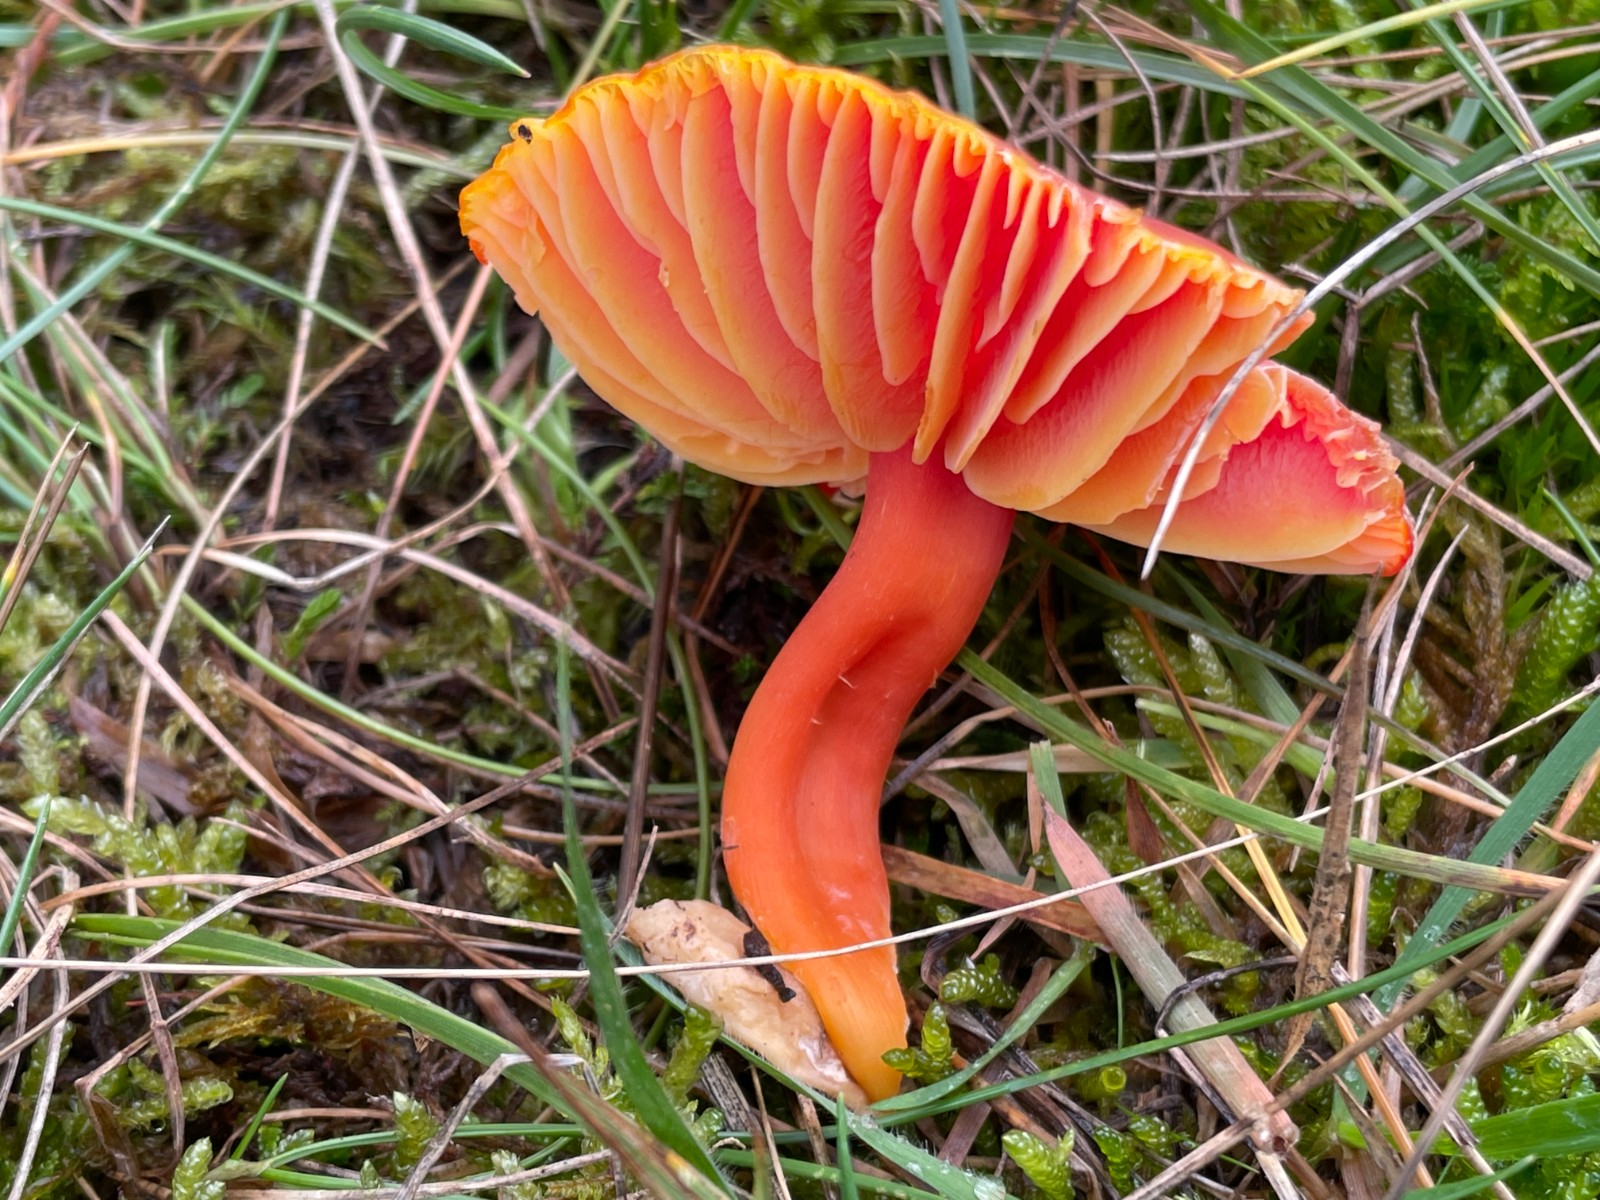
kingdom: Fungi
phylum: Basidiomycota
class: Agaricomycetes
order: Agaricales
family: Hygrophoraceae
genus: Hygrocybe
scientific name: Hygrocybe coccinea
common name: cinnober-vokshat
